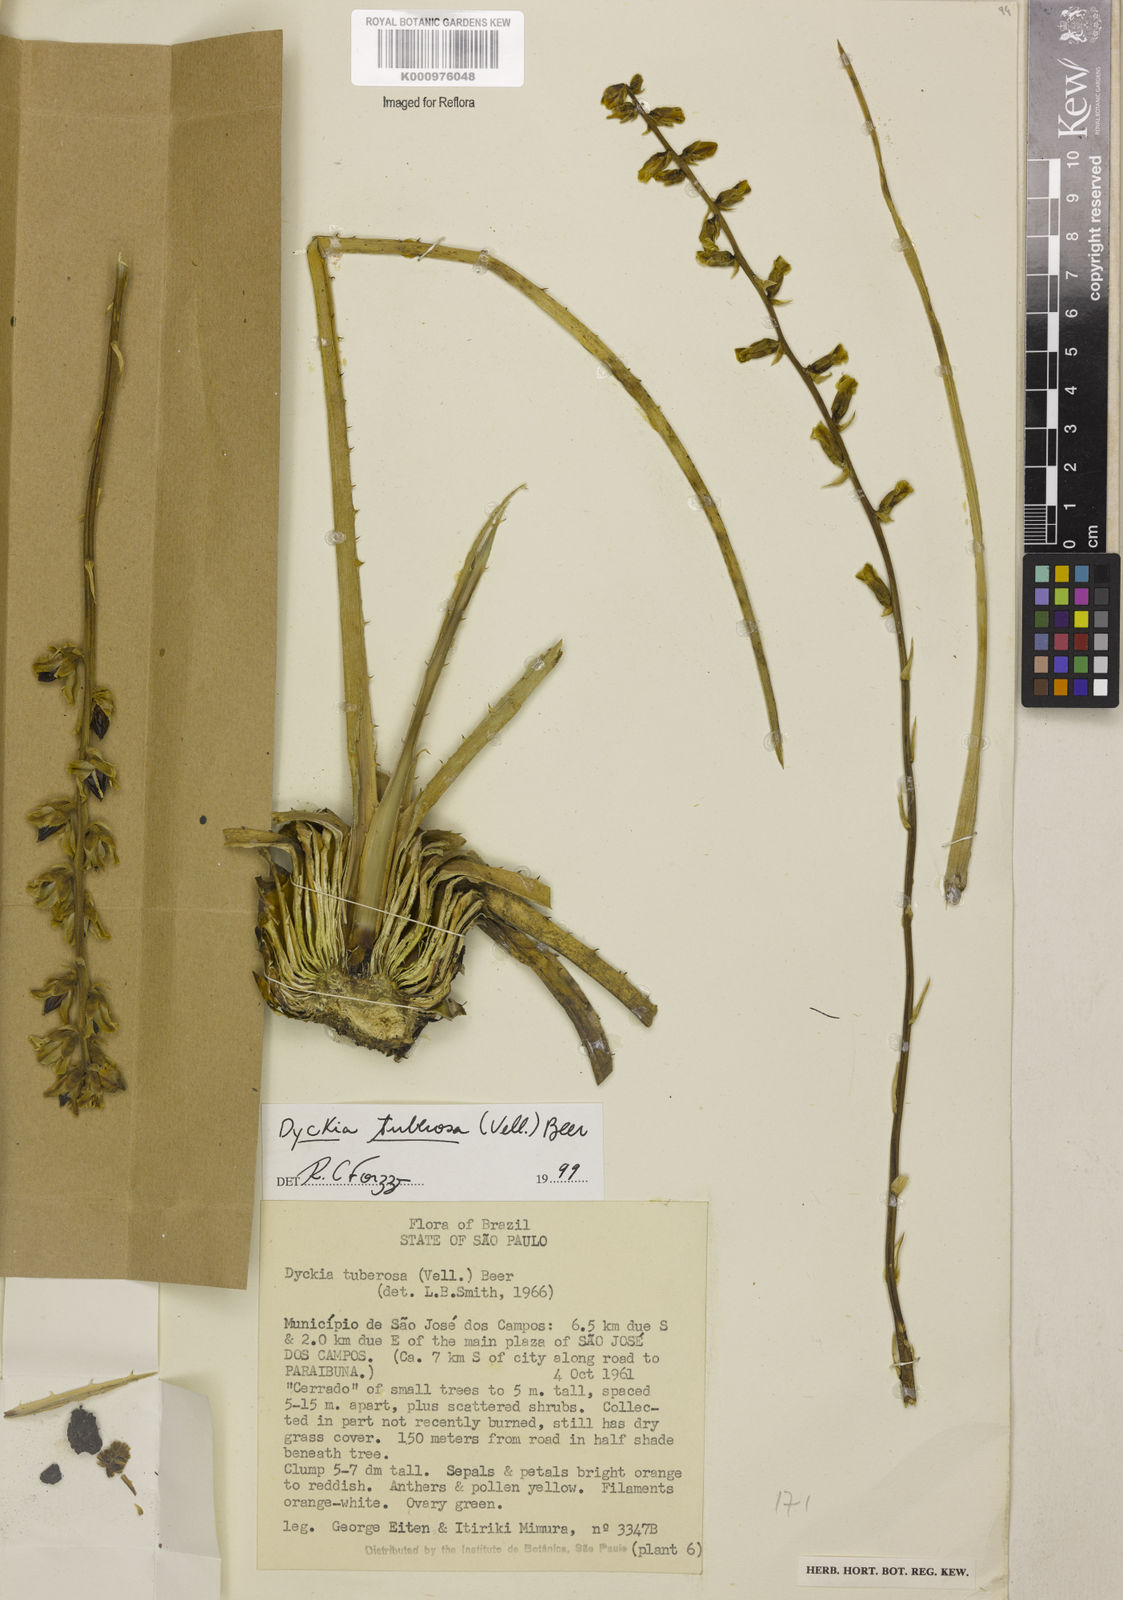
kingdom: Plantae
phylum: Tracheophyta
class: Liliopsida
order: Poales
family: Bromeliaceae
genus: Dyckia
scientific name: Dyckia tuberosa
